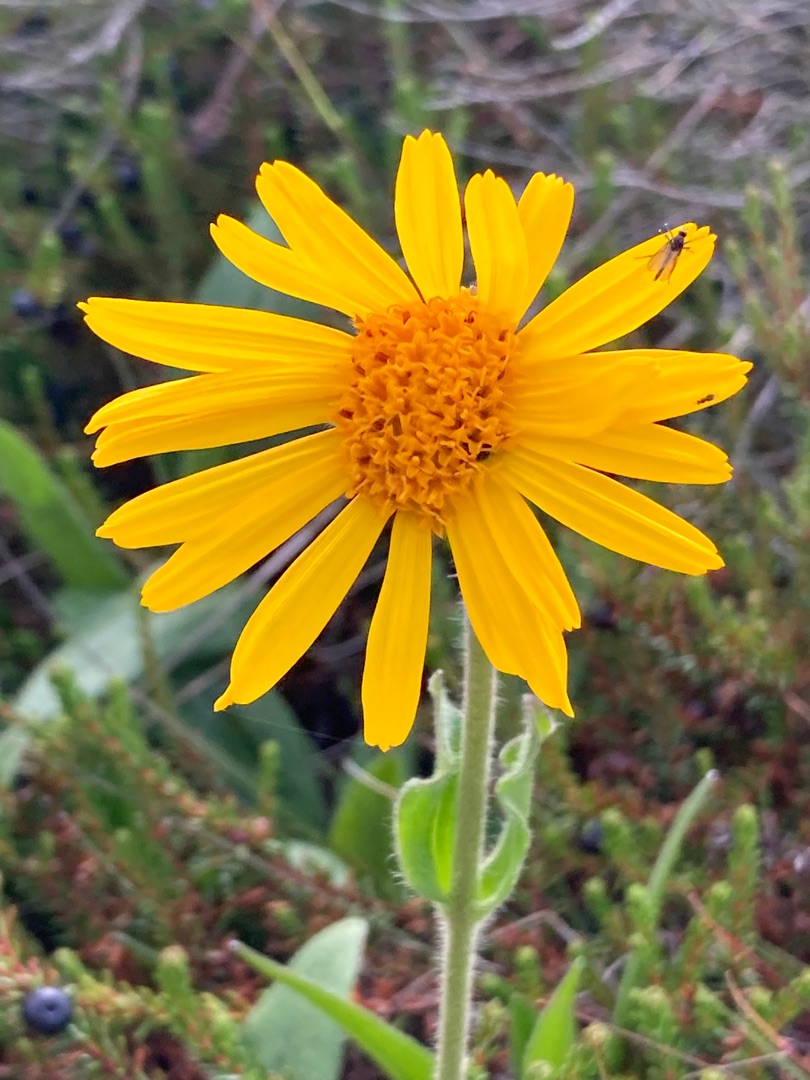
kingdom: Plantae
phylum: Tracheophyta
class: Magnoliopsida
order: Asterales
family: Asteraceae
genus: Arnica
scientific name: Arnica montana
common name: Guldblomme
